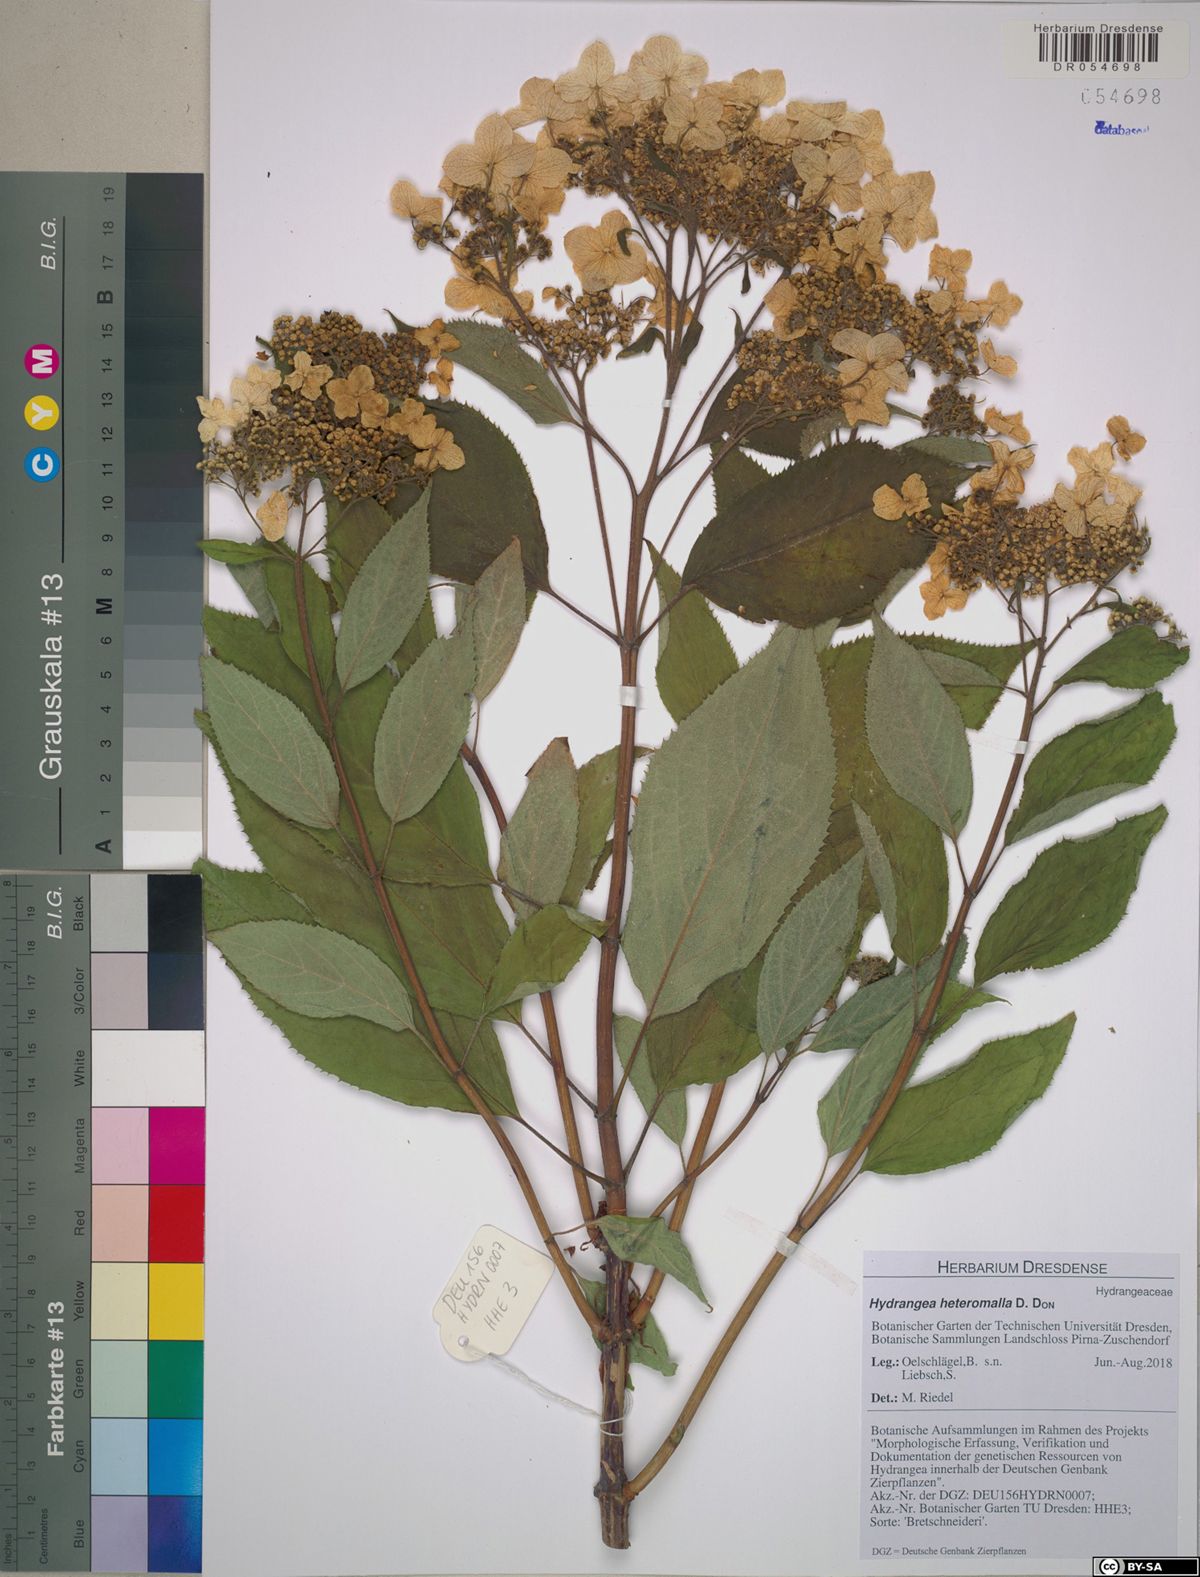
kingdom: Plantae
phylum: Tracheophyta
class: Magnoliopsida
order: Cornales
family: Hydrangeaceae
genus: Hydrangea
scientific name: Hydrangea heteromalla
